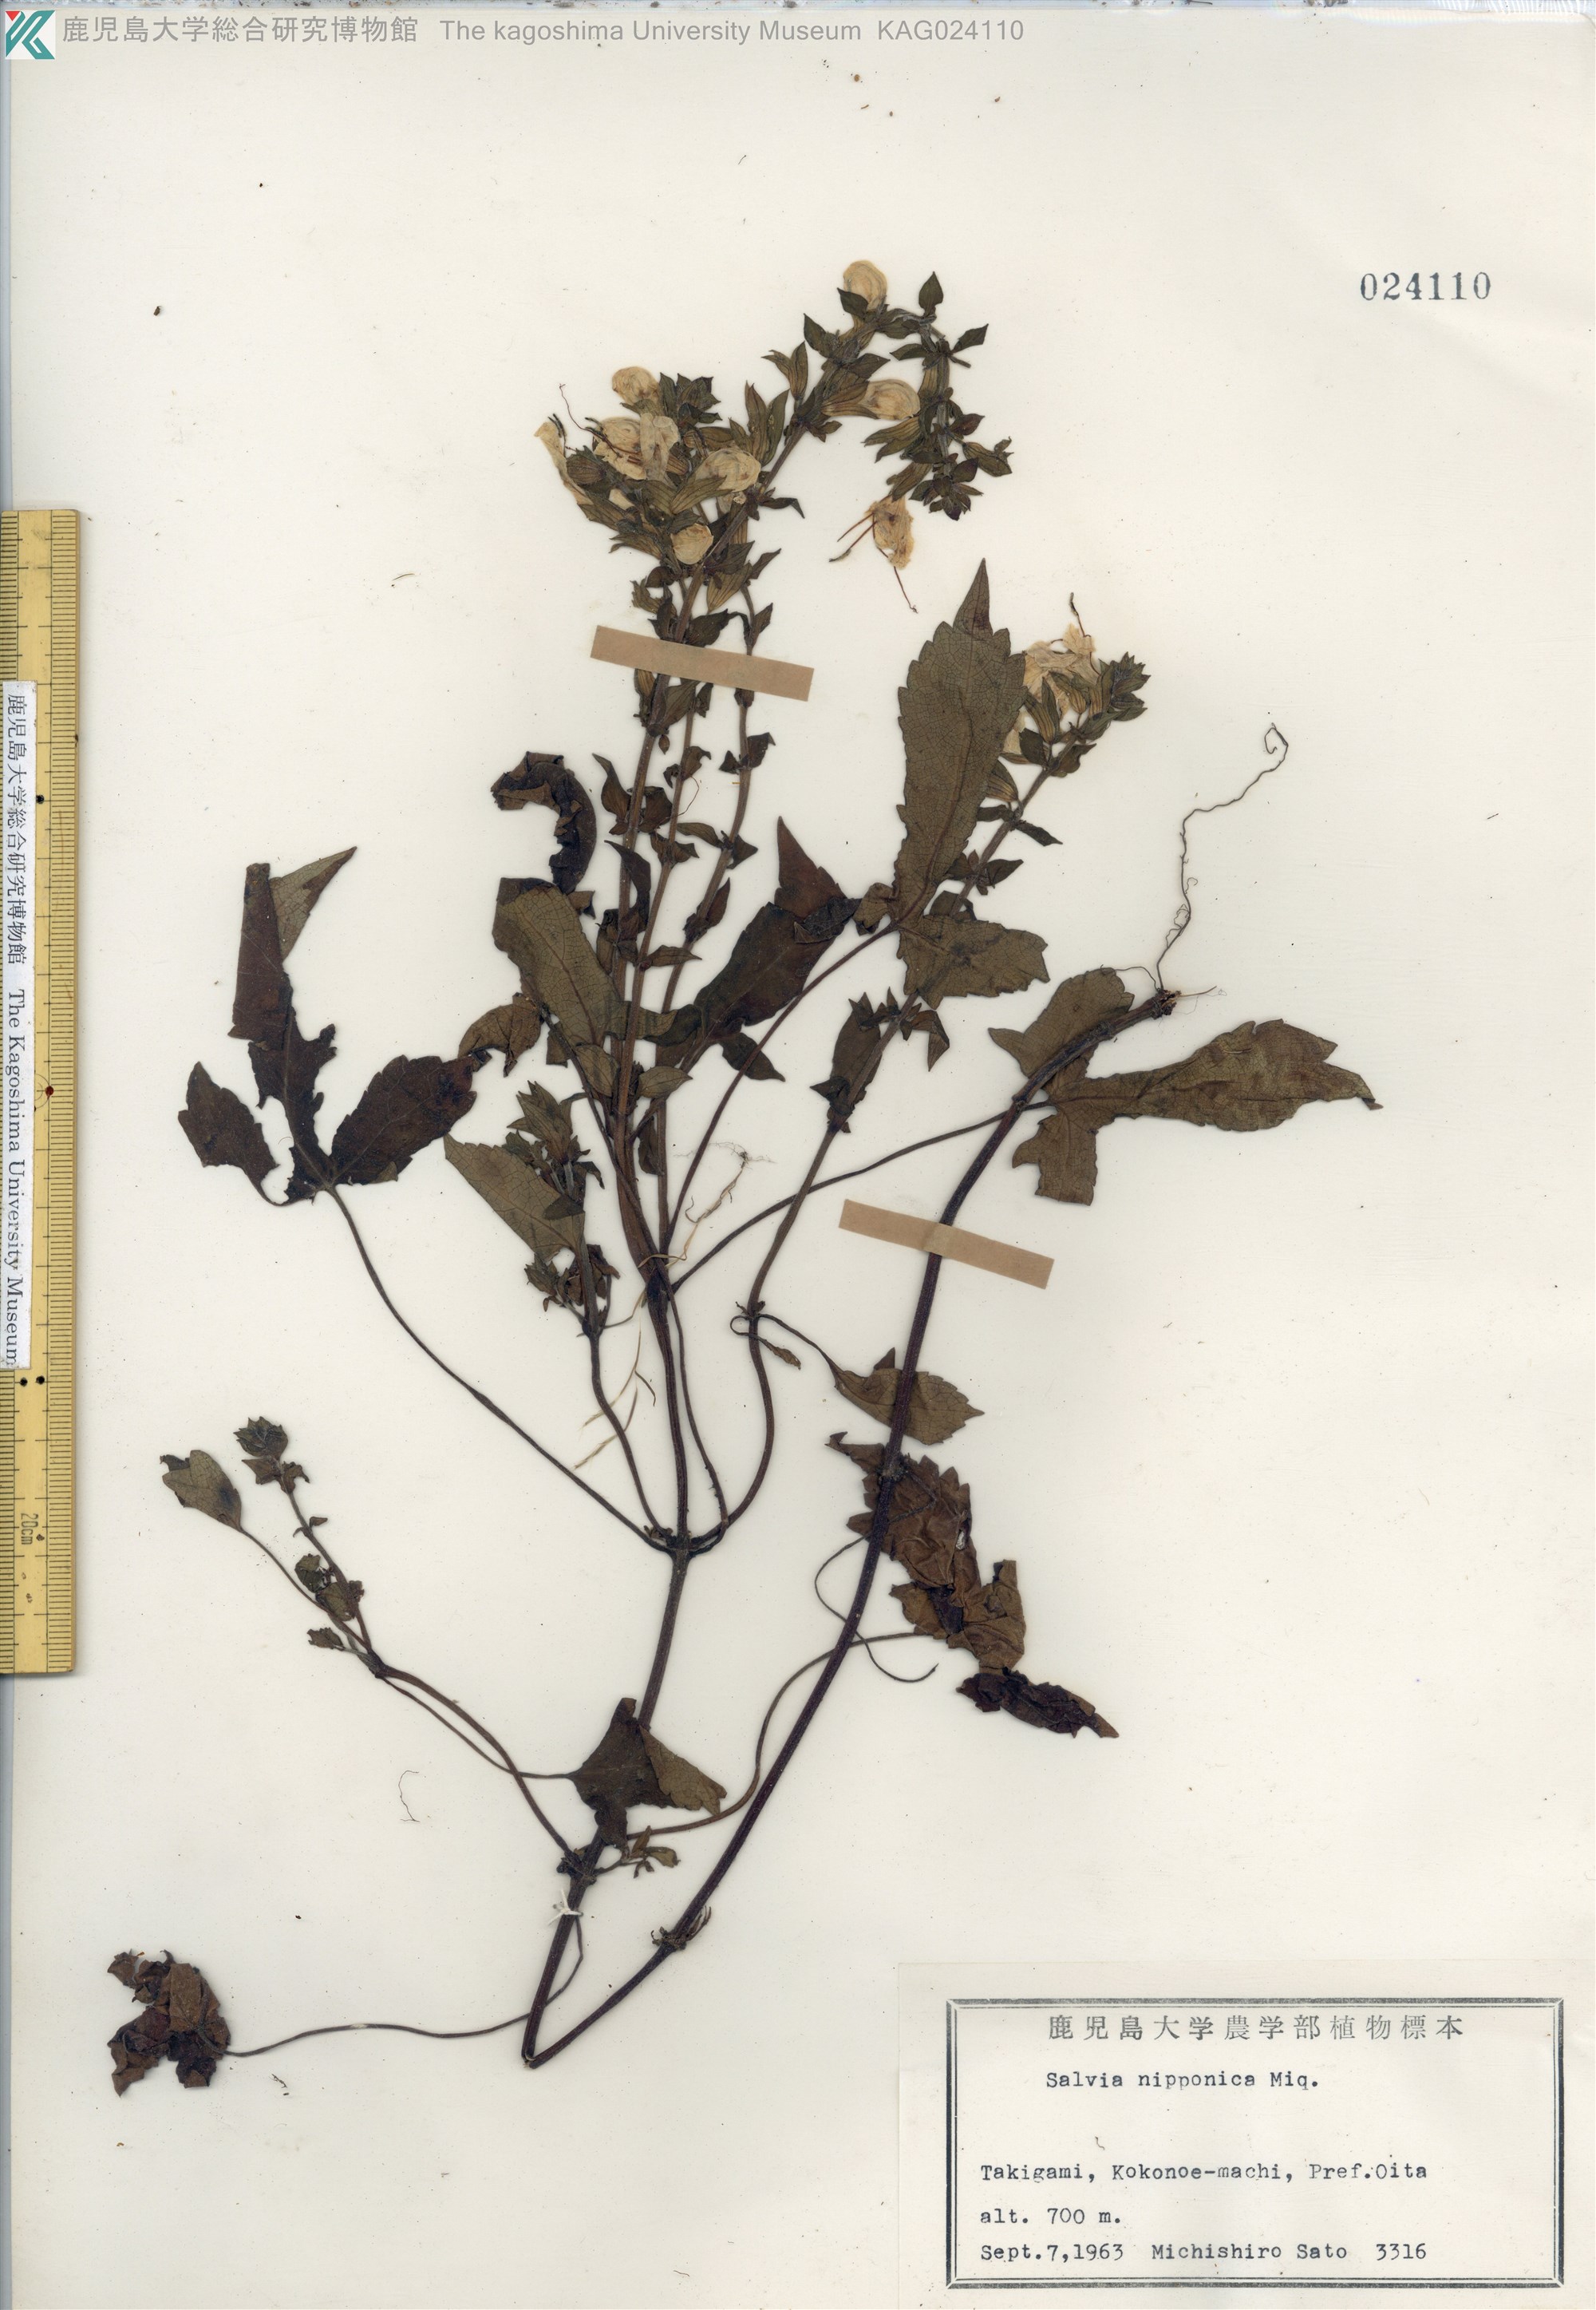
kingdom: Plantae
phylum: Tracheophyta
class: Magnoliopsida
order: Lamiales
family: Lamiaceae
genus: Salvia
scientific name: Salvia nipponica
